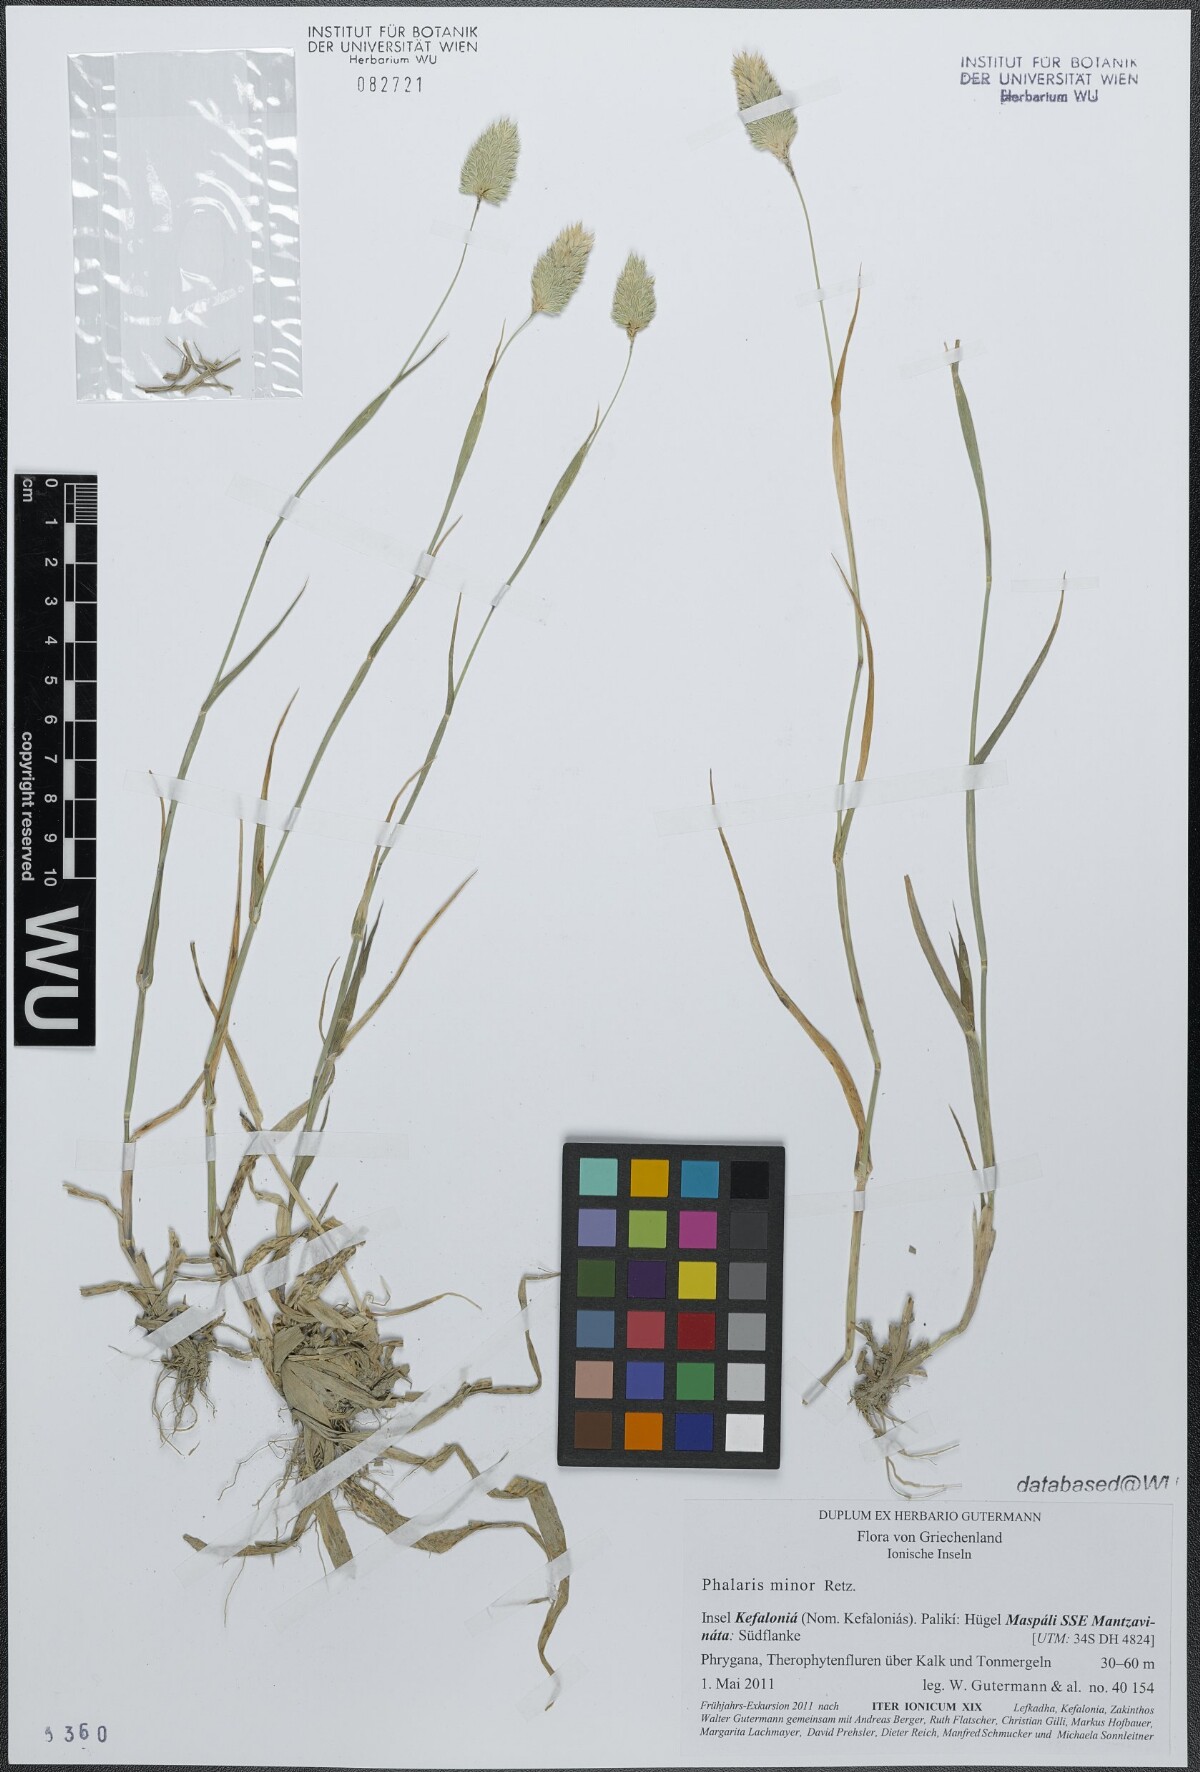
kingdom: Plantae
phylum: Tracheophyta
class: Liliopsida
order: Poales
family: Poaceae
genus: Phalaris
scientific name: Phalaris minor
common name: Littleseed canarygrass
